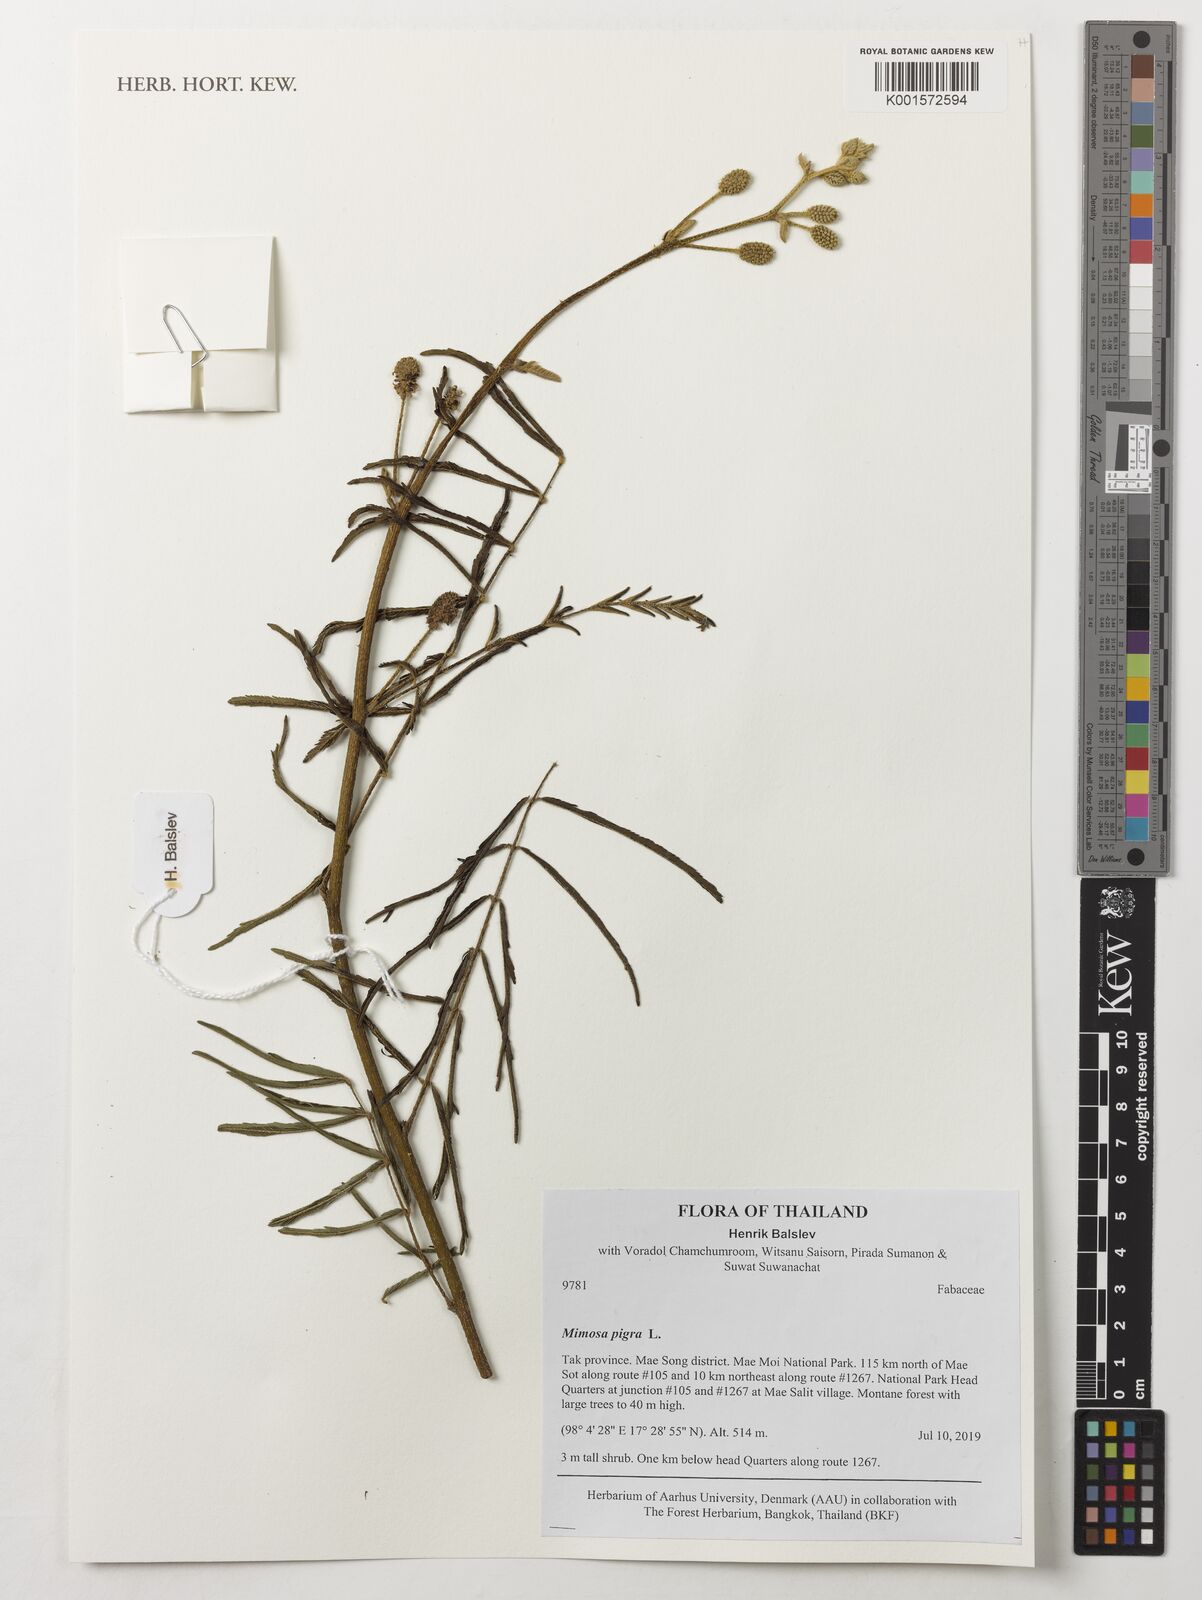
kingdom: Plantae
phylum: Tracheophyta
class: Magnoliopsida
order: Fabales
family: Fabaceae
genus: Mimosa
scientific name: Mimosa pigra
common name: Black mimosa
